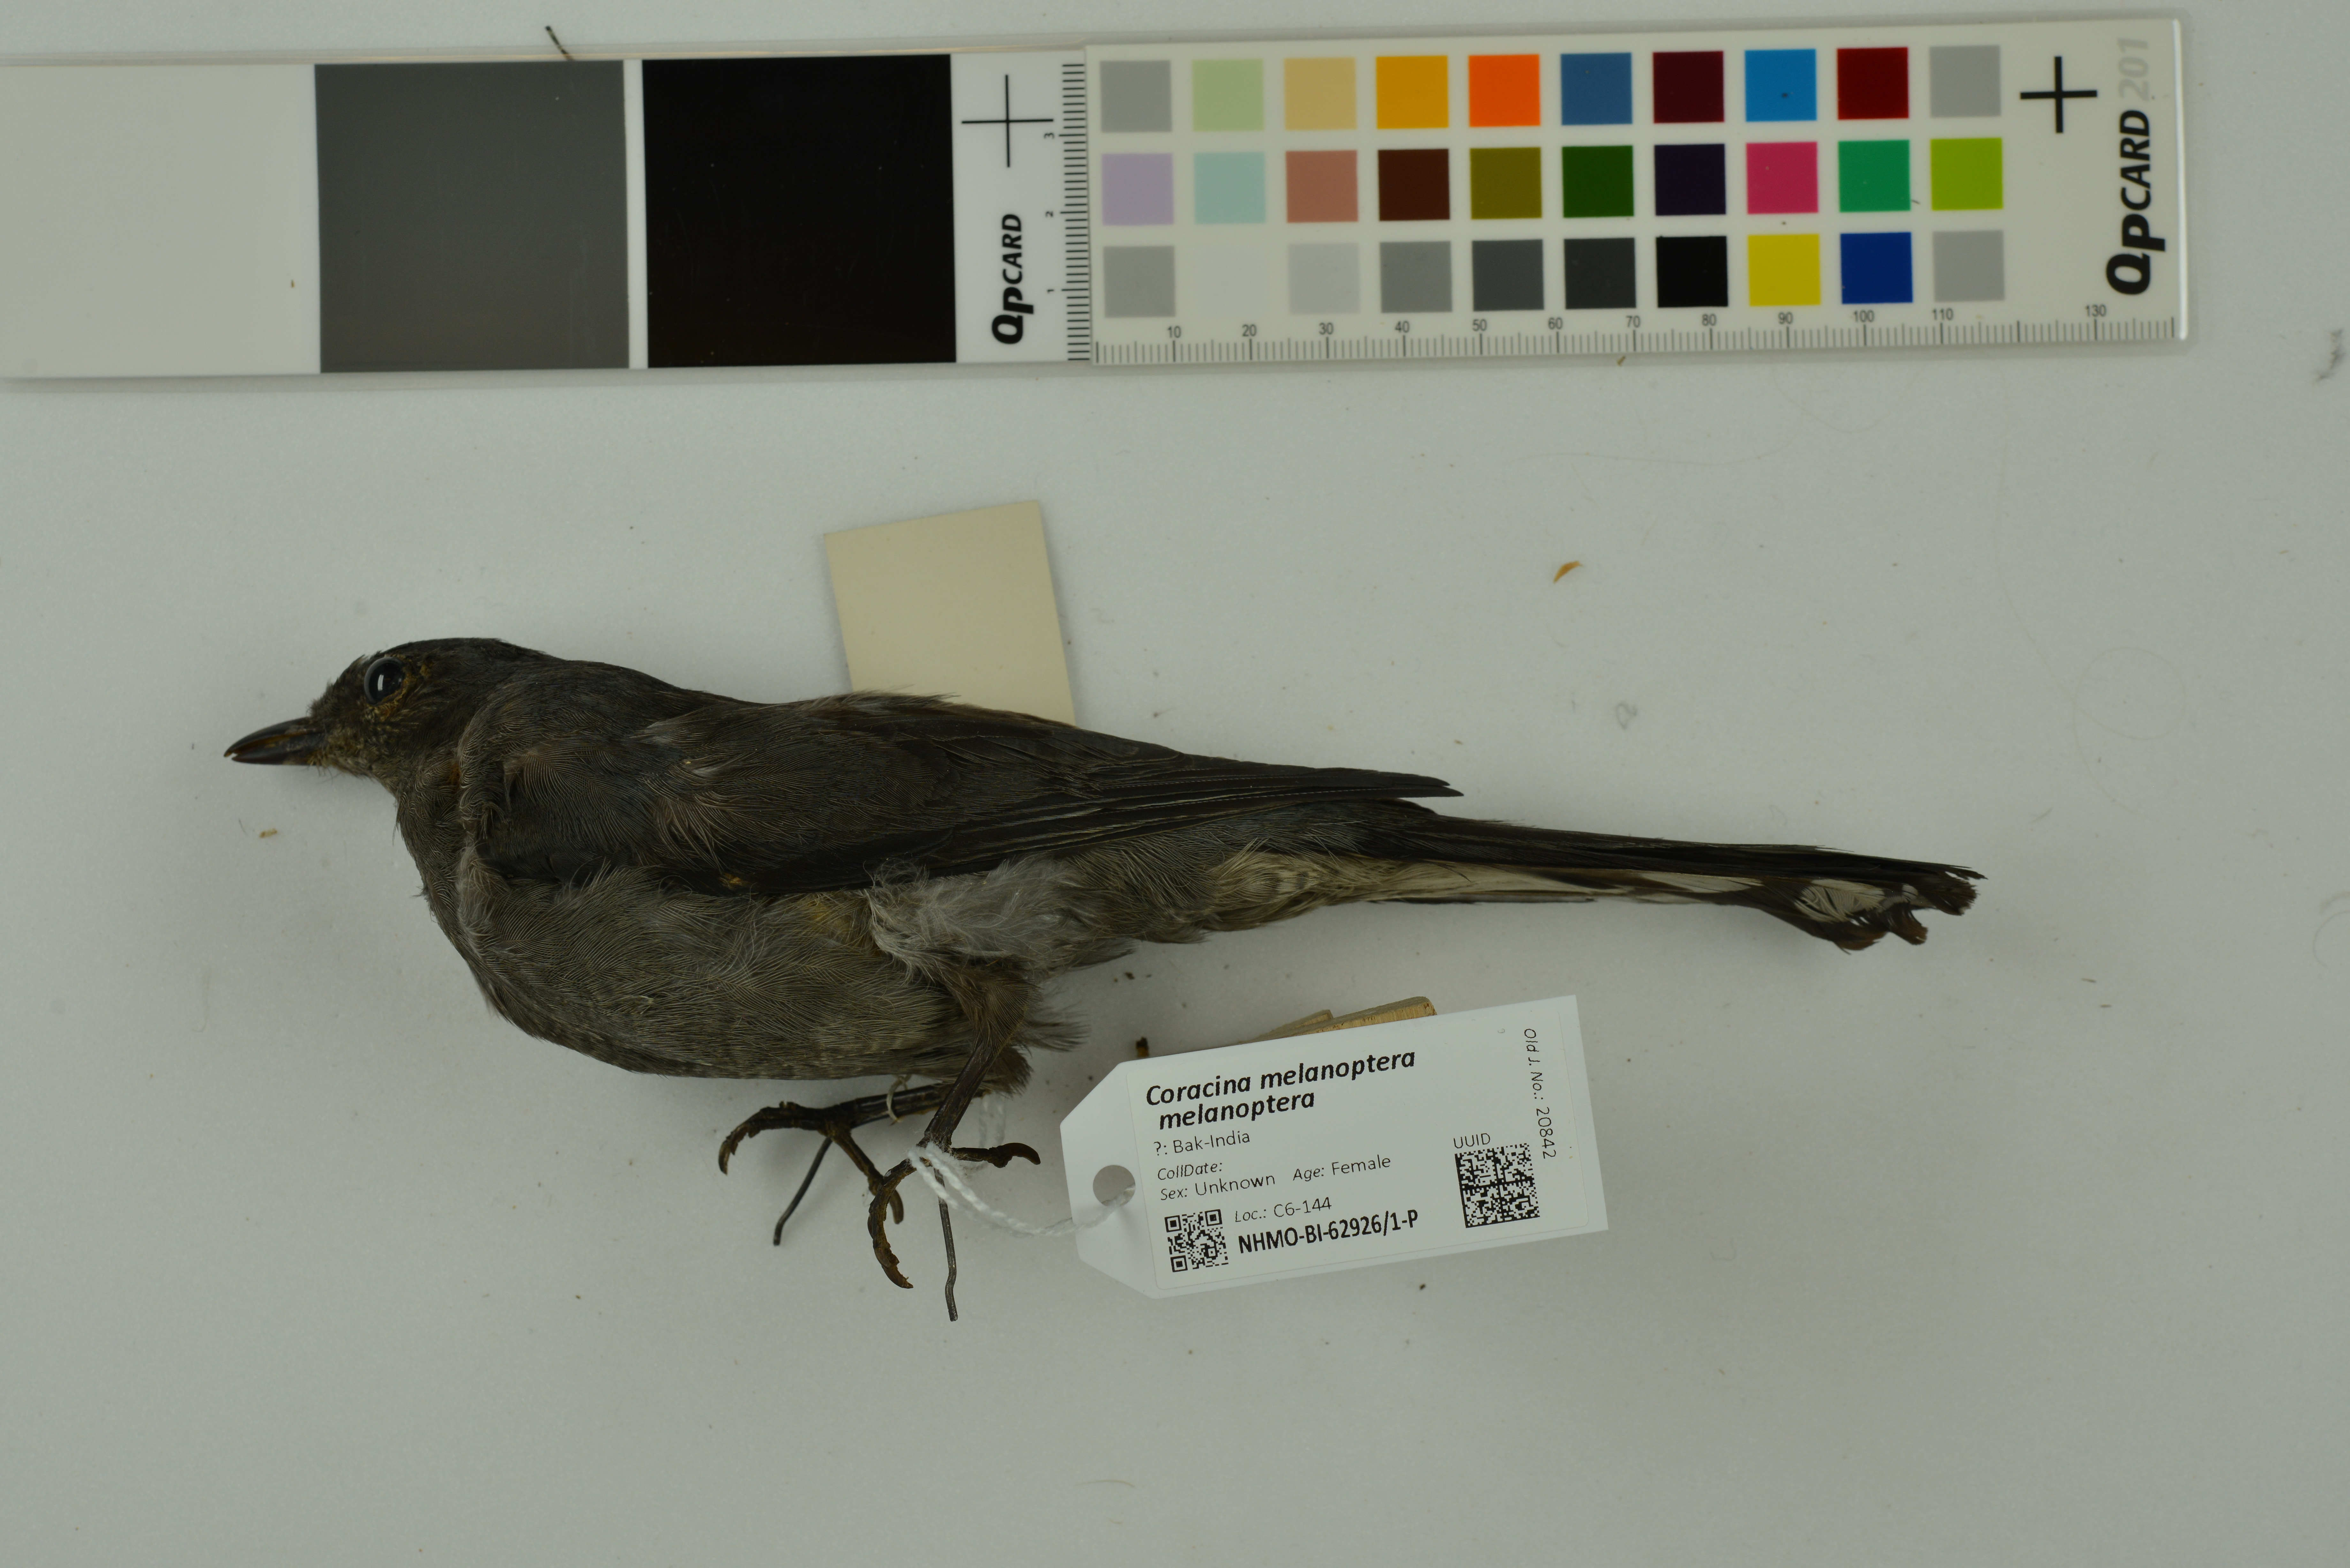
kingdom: Animalia
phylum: Chordata
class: Aves
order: Passeriformes
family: Campephagidae
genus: Coracina
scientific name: Coracina melanoptera
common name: Black-headed cuckooshrike
